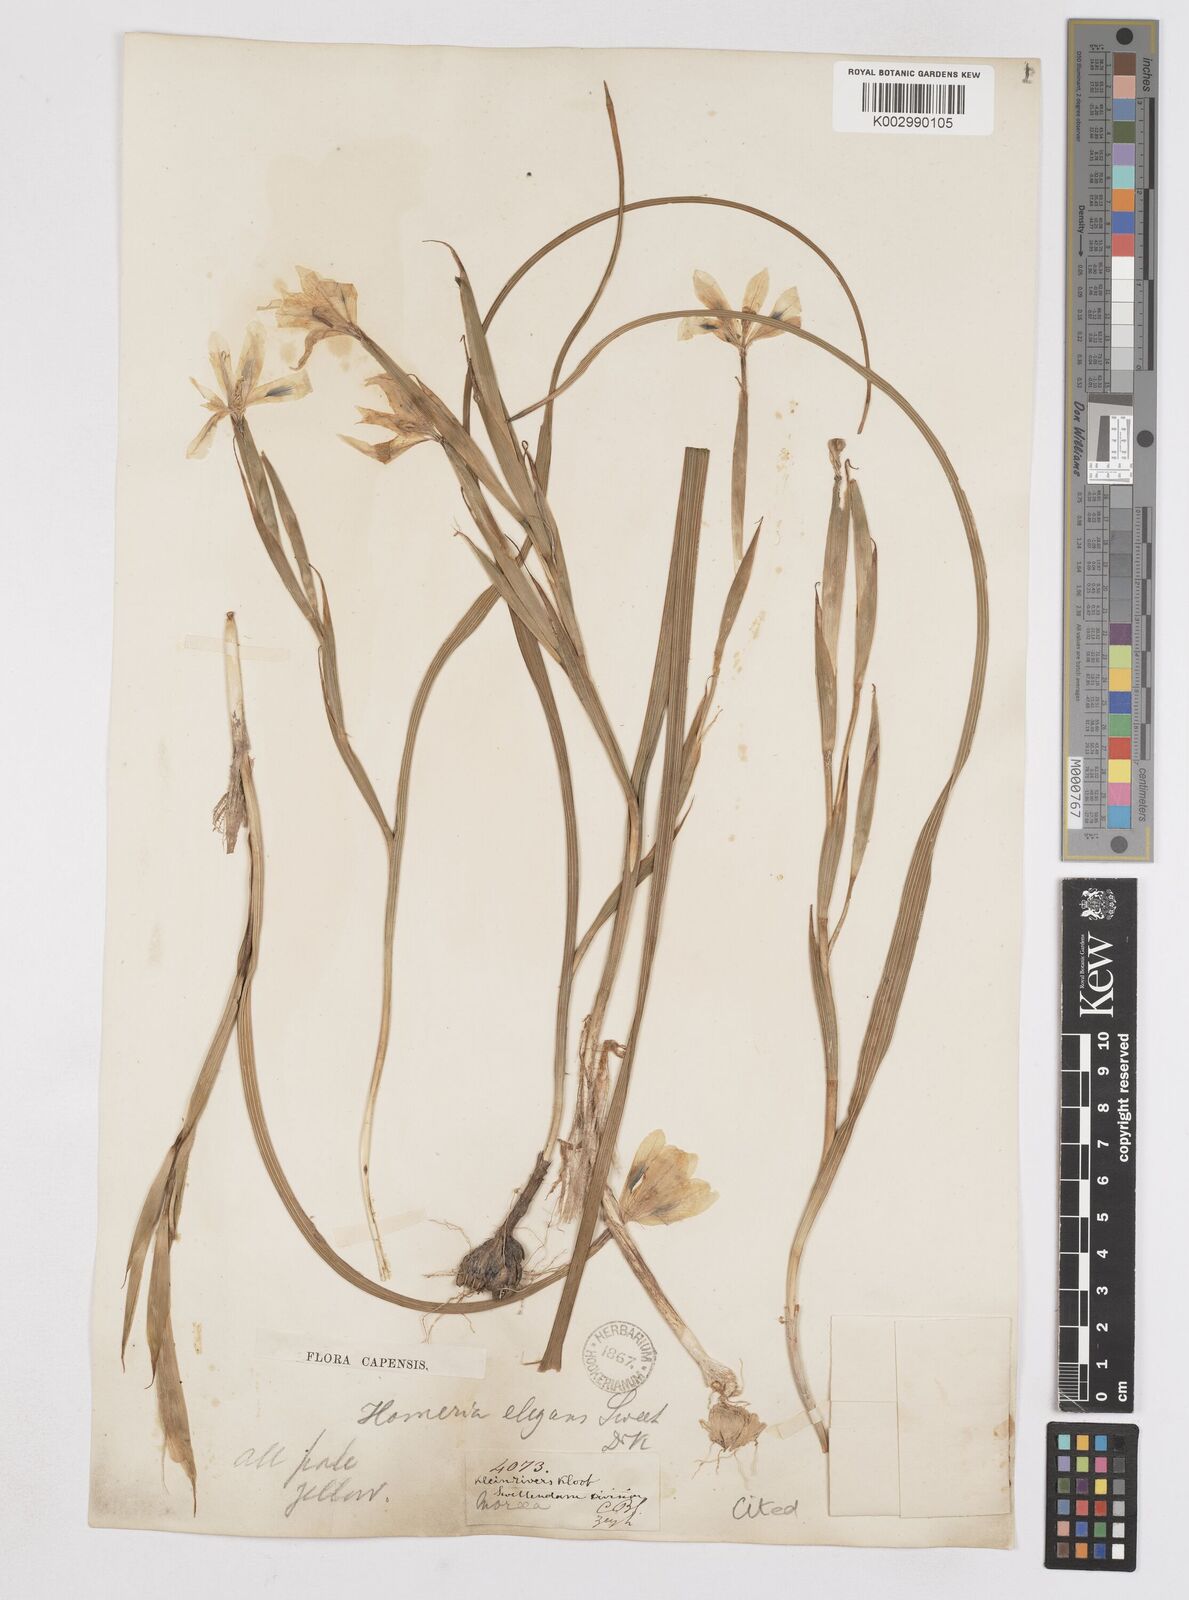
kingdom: Plantae
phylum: Tracheophyta
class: Liliopsida
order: Asparagales
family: Iridaceae
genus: Moraea
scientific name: Moraea elegans
